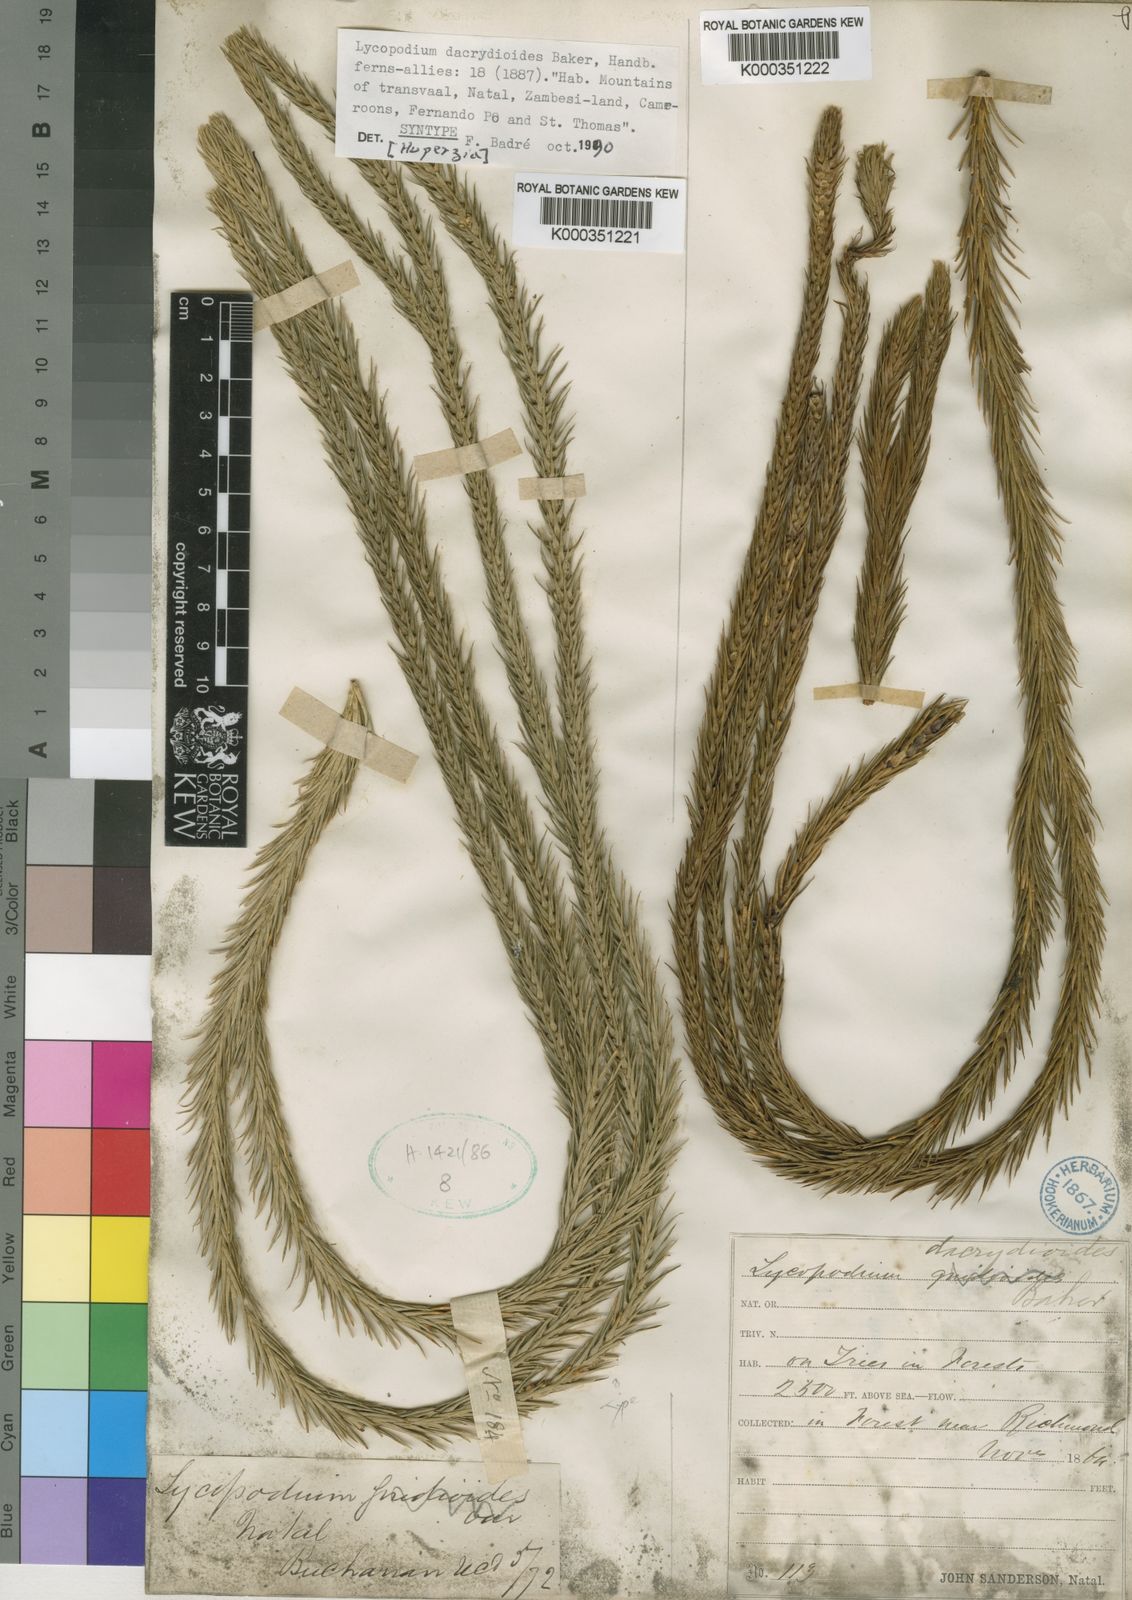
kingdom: Plantae
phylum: Tracheophyta
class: Lycopodiopsida
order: Lycopodiales
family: Lycopodiaceae
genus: Phlegmariurus
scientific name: Phlegmariurus dacrydioides
